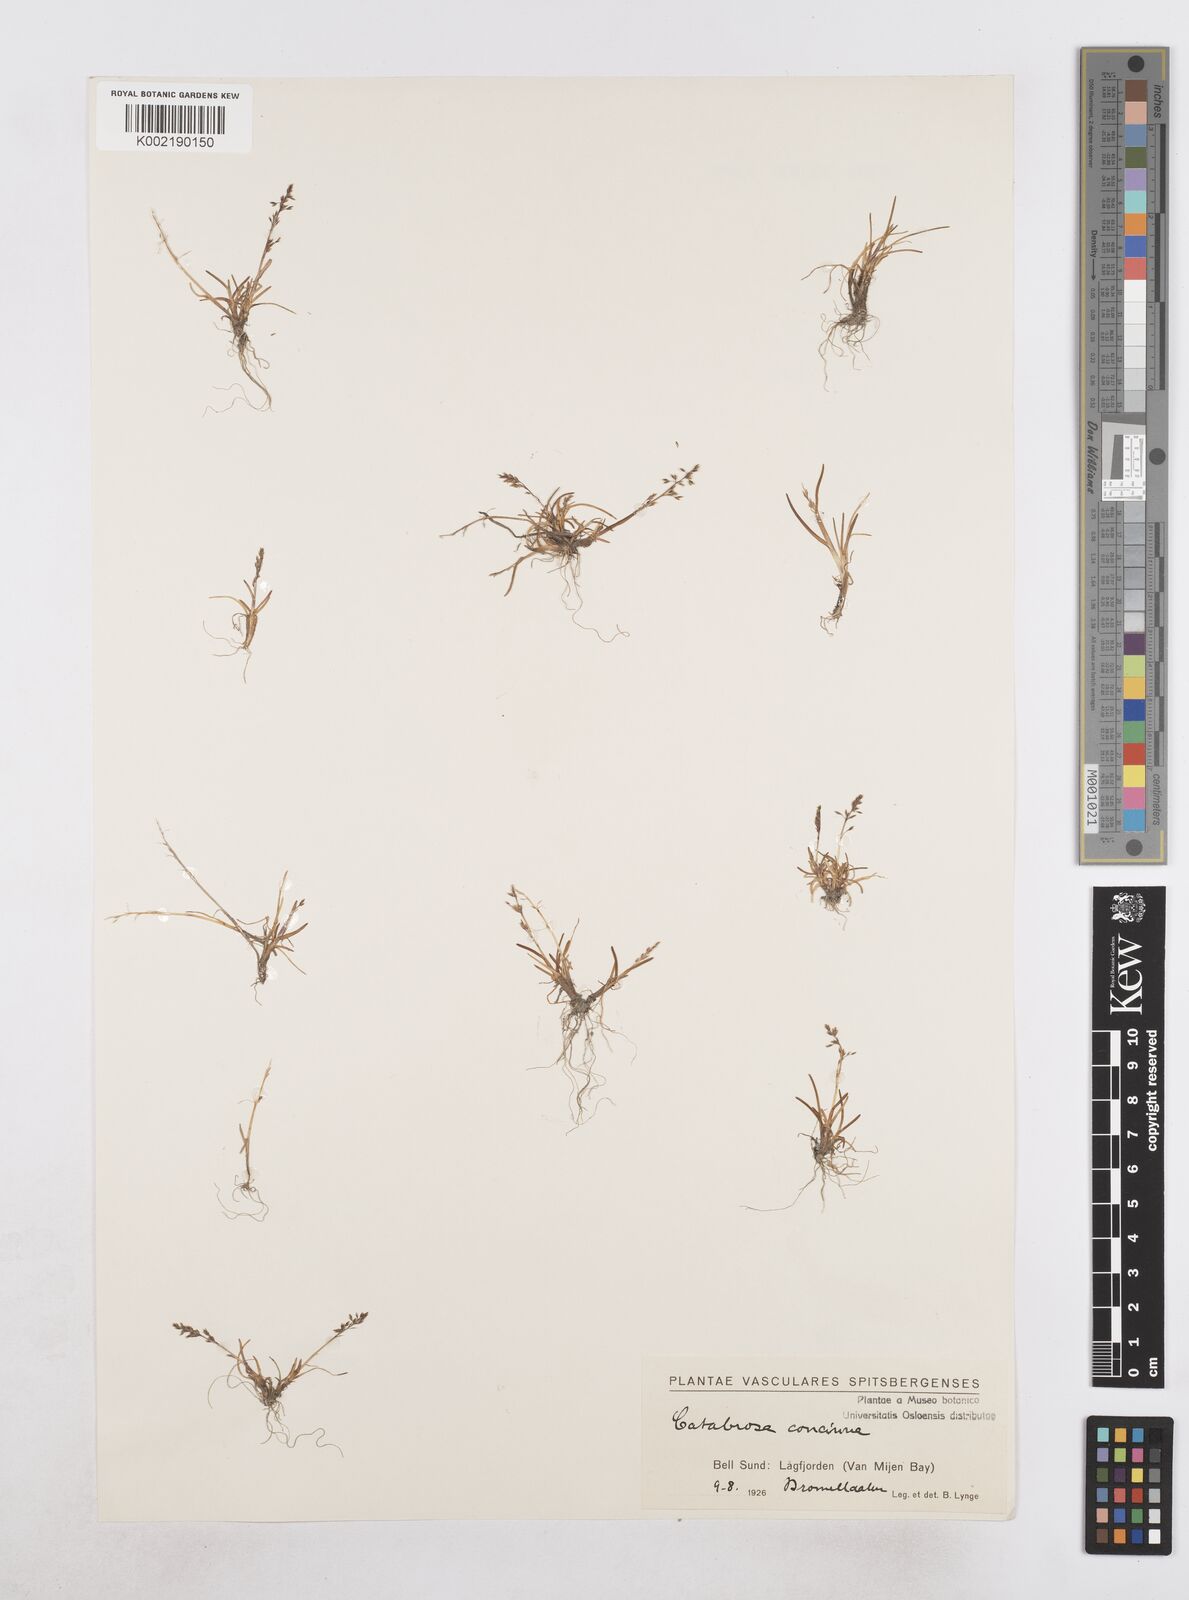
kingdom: Plantae
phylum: Tracheophyta
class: Liliopsida
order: Poales
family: Poaceae
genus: Phippsia
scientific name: Phippsia concinna
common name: Snowgrass
